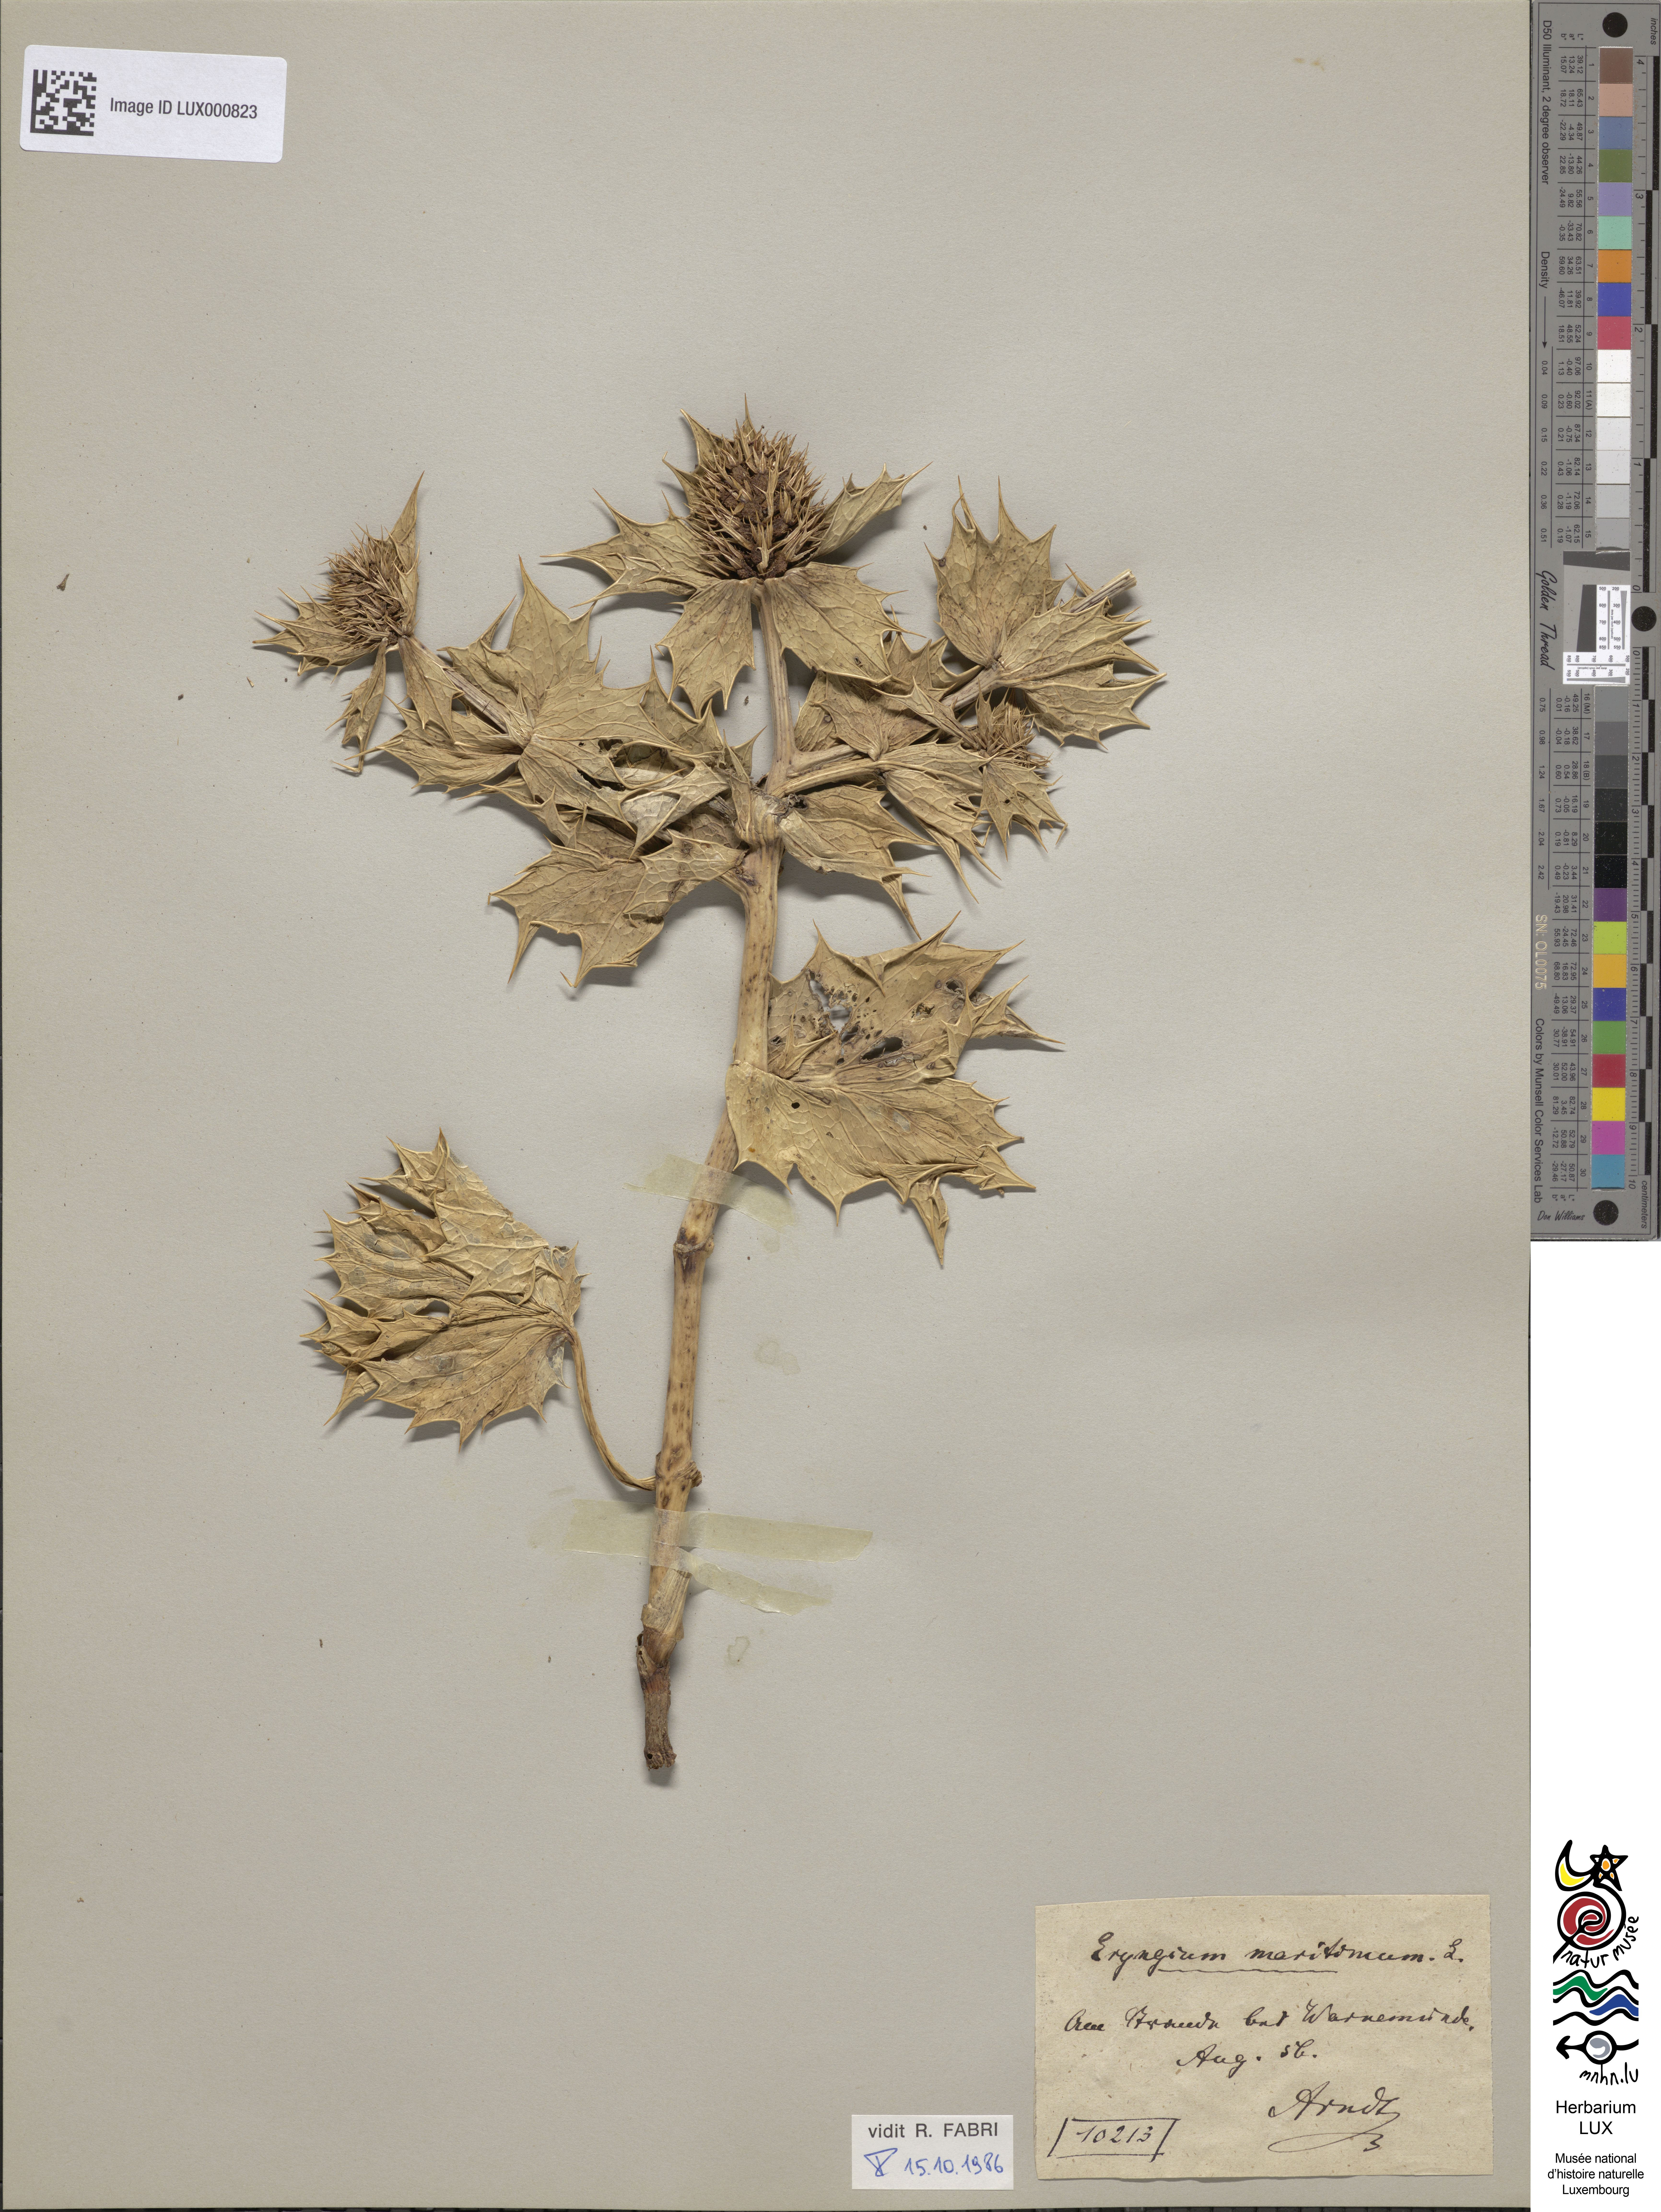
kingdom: Plantae
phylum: Tracheophyta
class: Magnoliopsida
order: Apiales
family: Apiaceae
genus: Eryngium
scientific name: Eryngium maritimum
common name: Sea-holly
